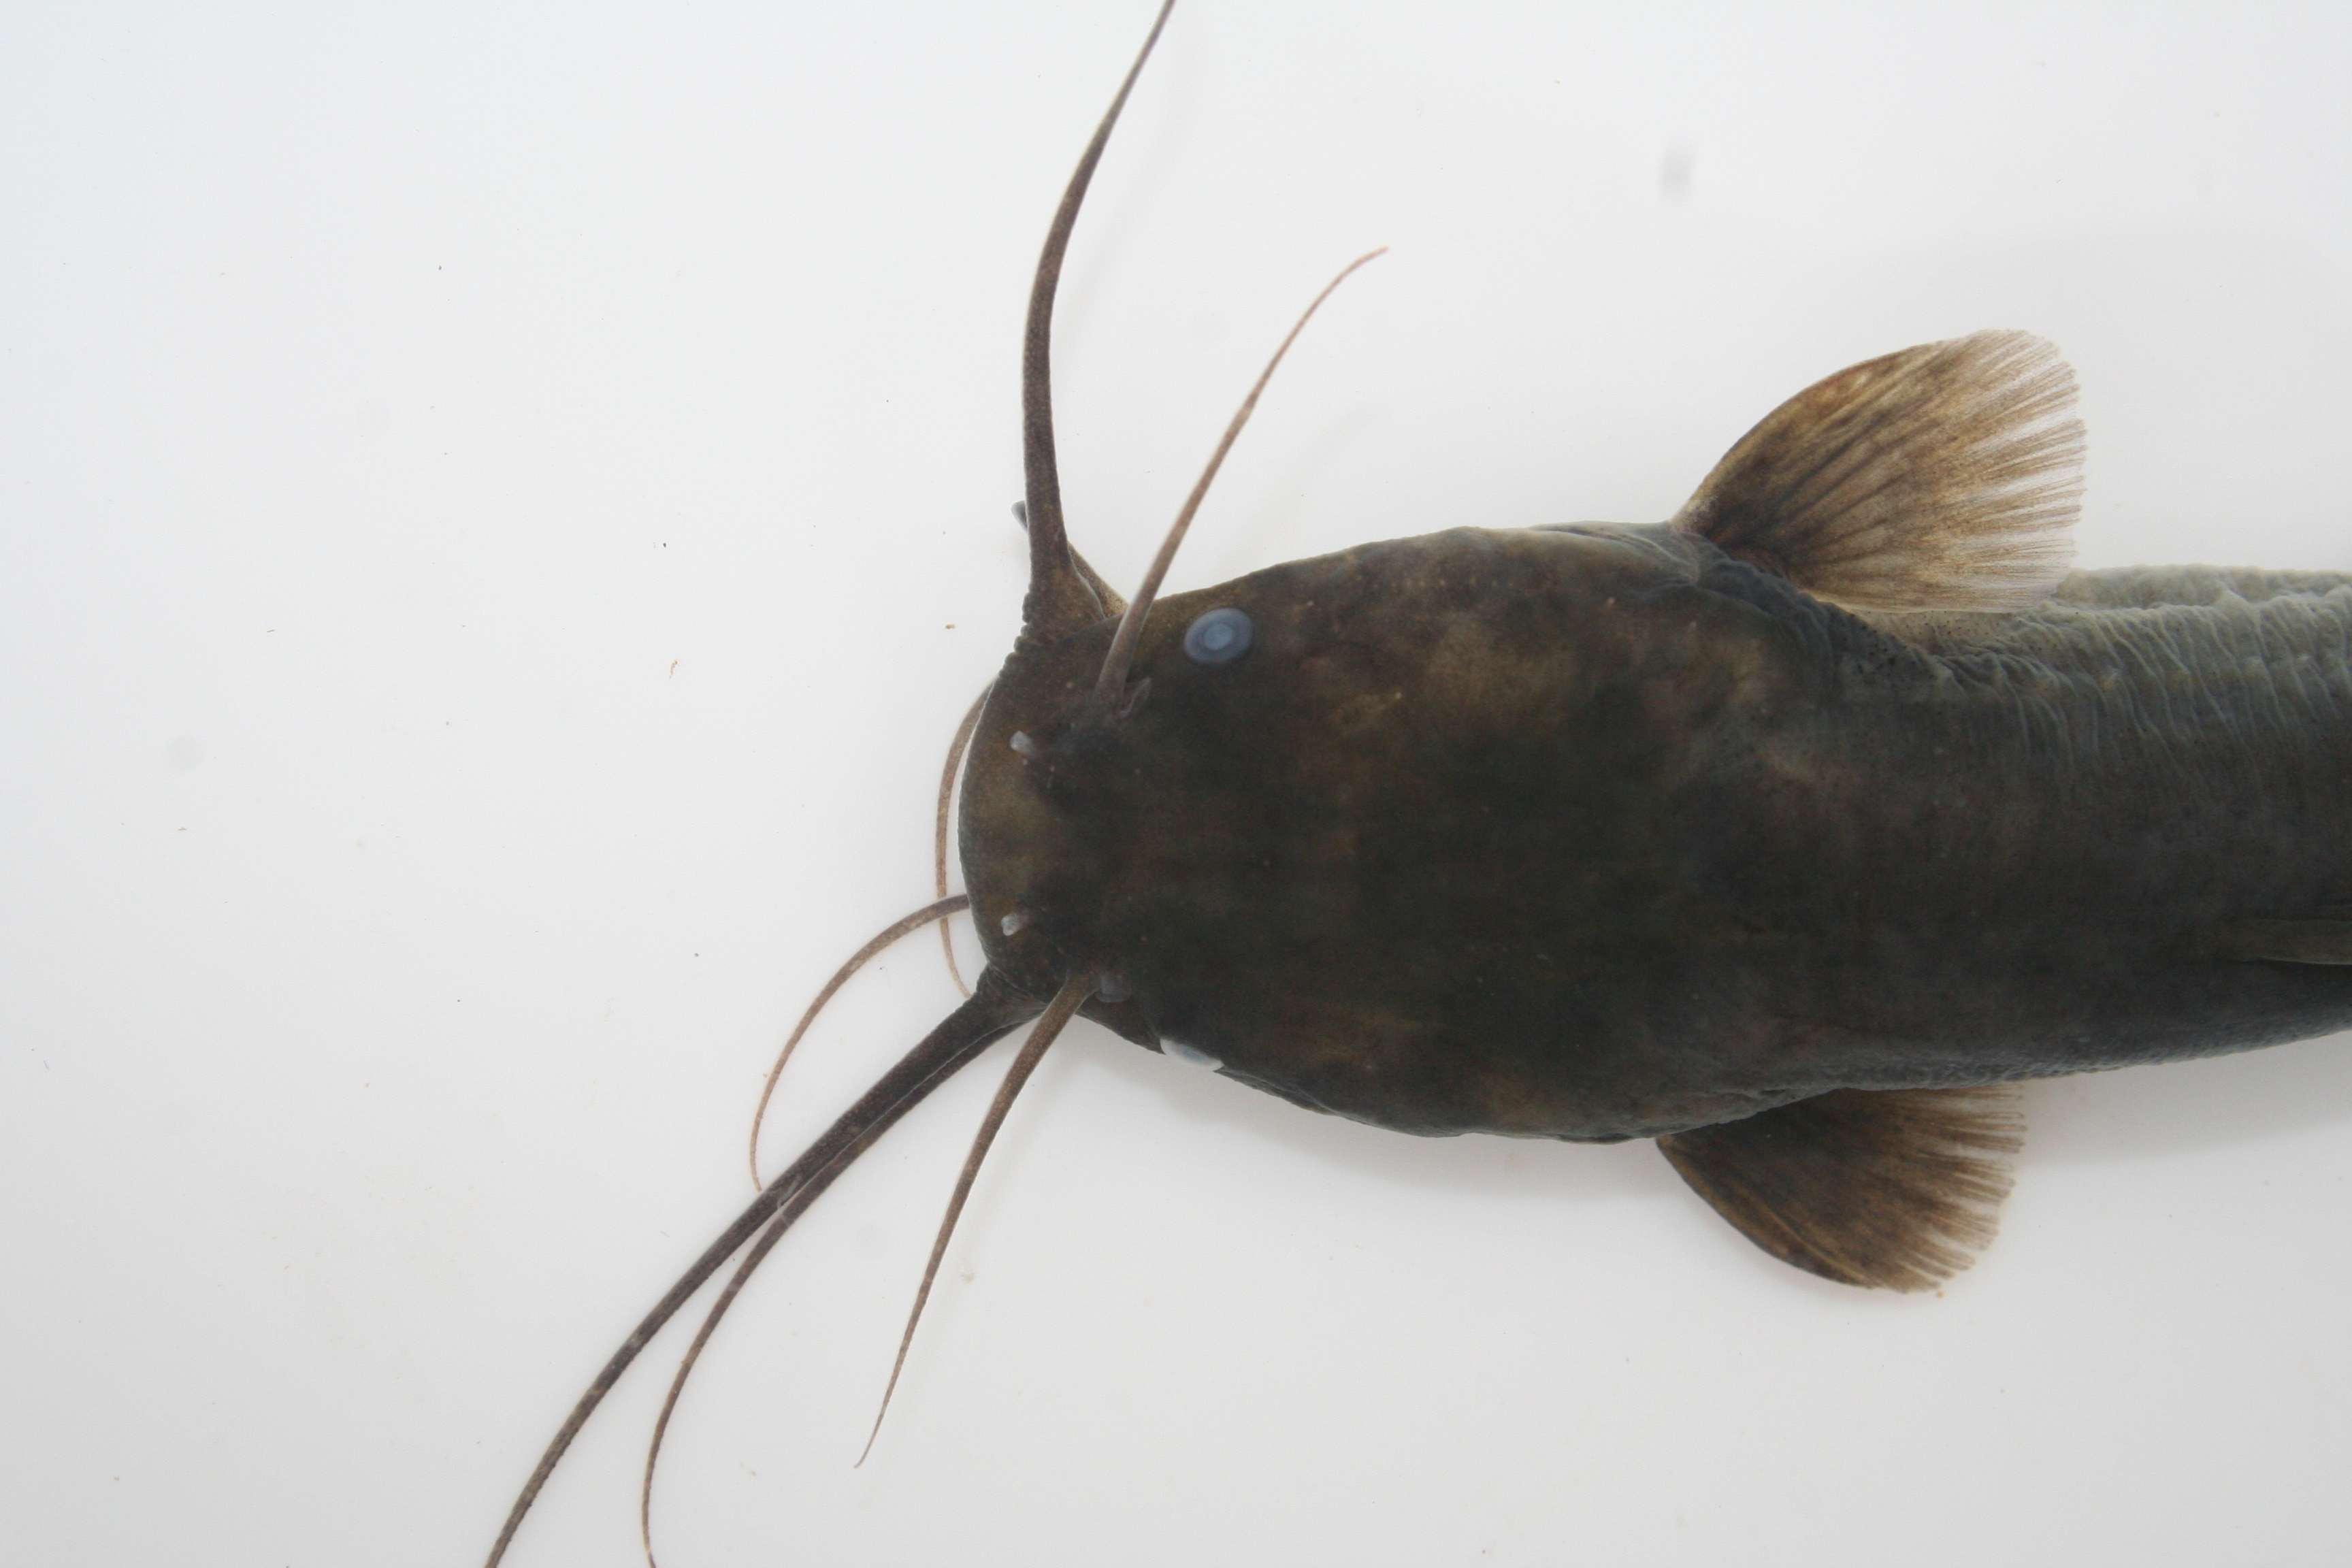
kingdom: Animalia
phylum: Chordata
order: Siluriformes
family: Clariidae
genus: Clarias
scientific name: Clarias
